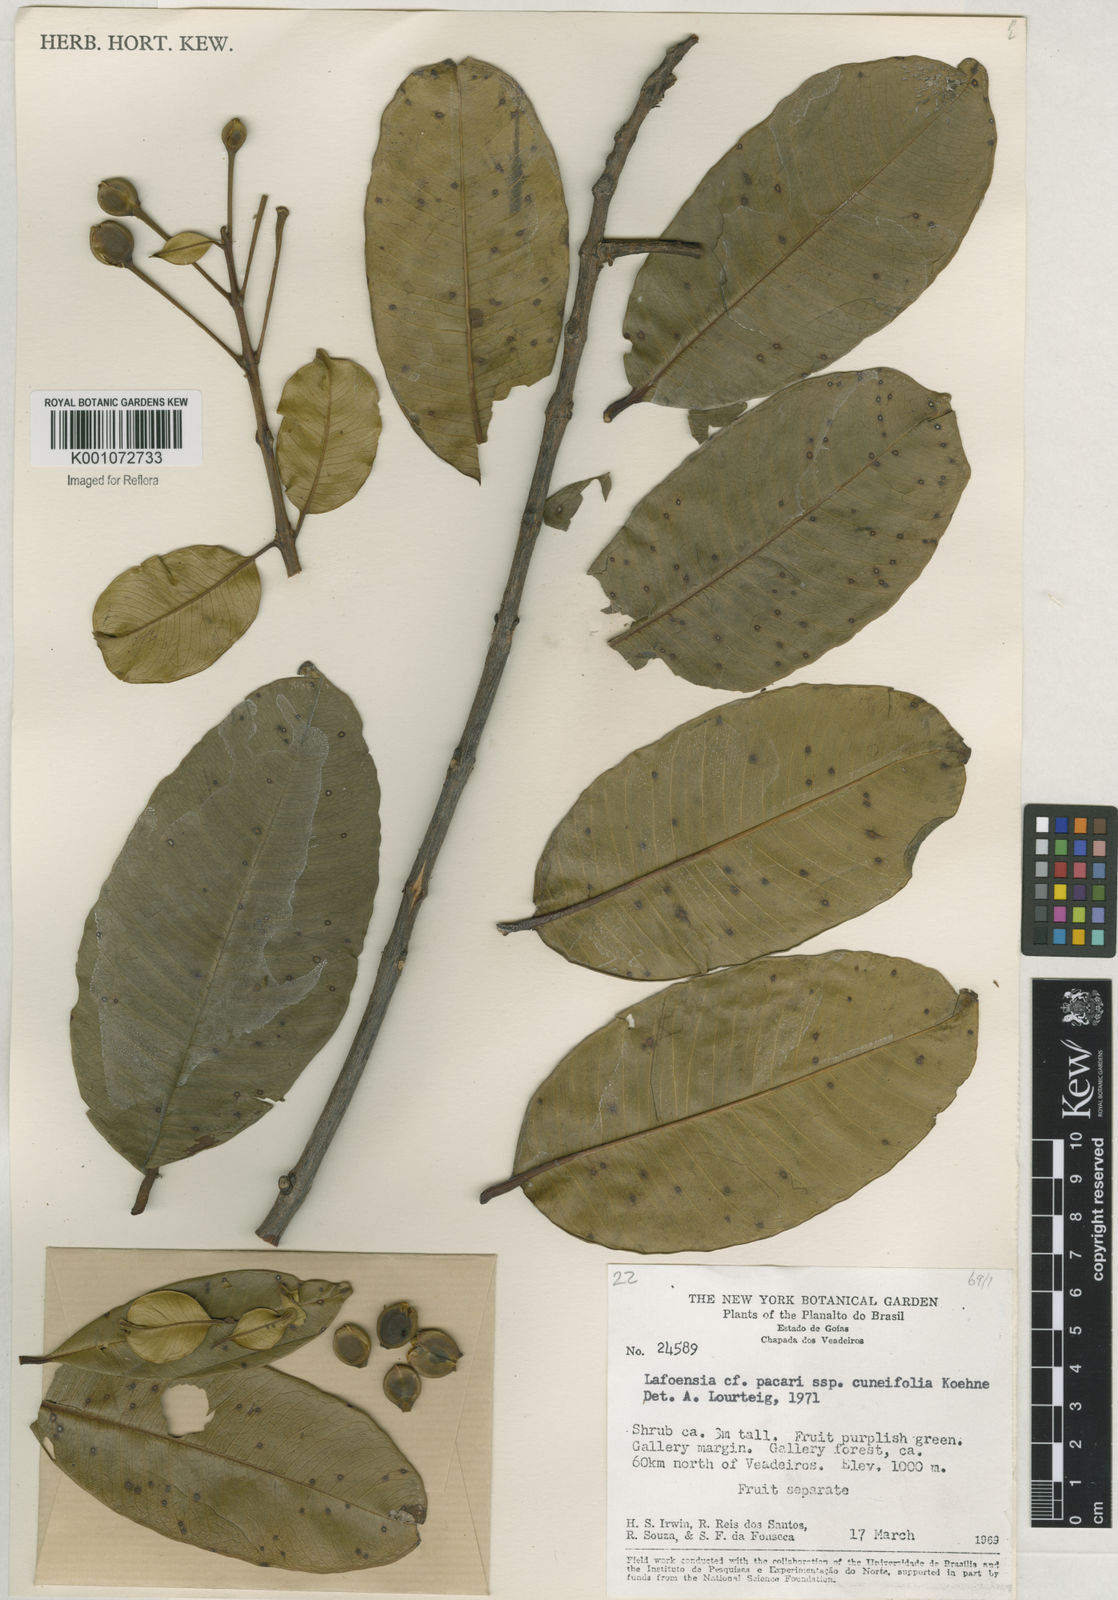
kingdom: Plantae
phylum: Tracheophyta
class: Magnoliopsida
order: Myrtales
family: Lythraceae
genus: Lafoensia
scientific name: Lafoensia pacari
